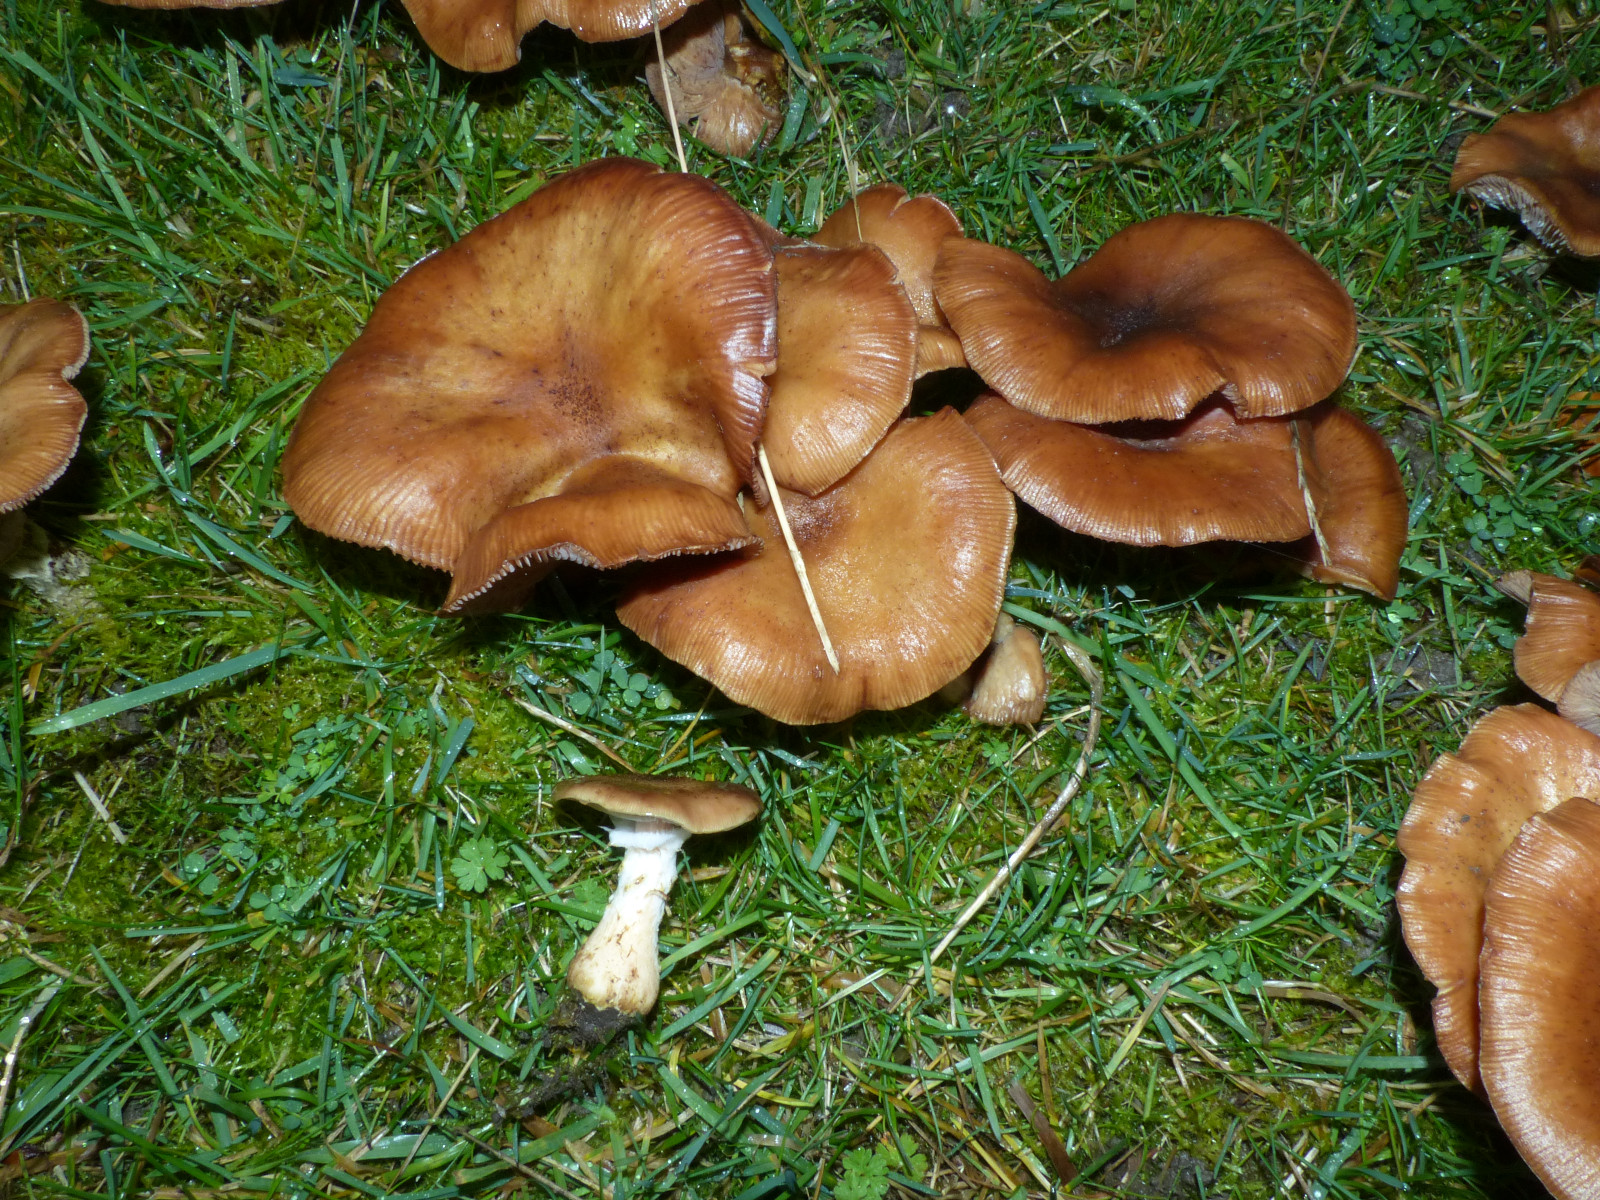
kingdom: Fungi
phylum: Basidiomycota
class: Agaricomycetes
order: Agaricales
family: Physalacriaceae
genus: Armillaria
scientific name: Armillaria lutea
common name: køllestokket honningsvamp
